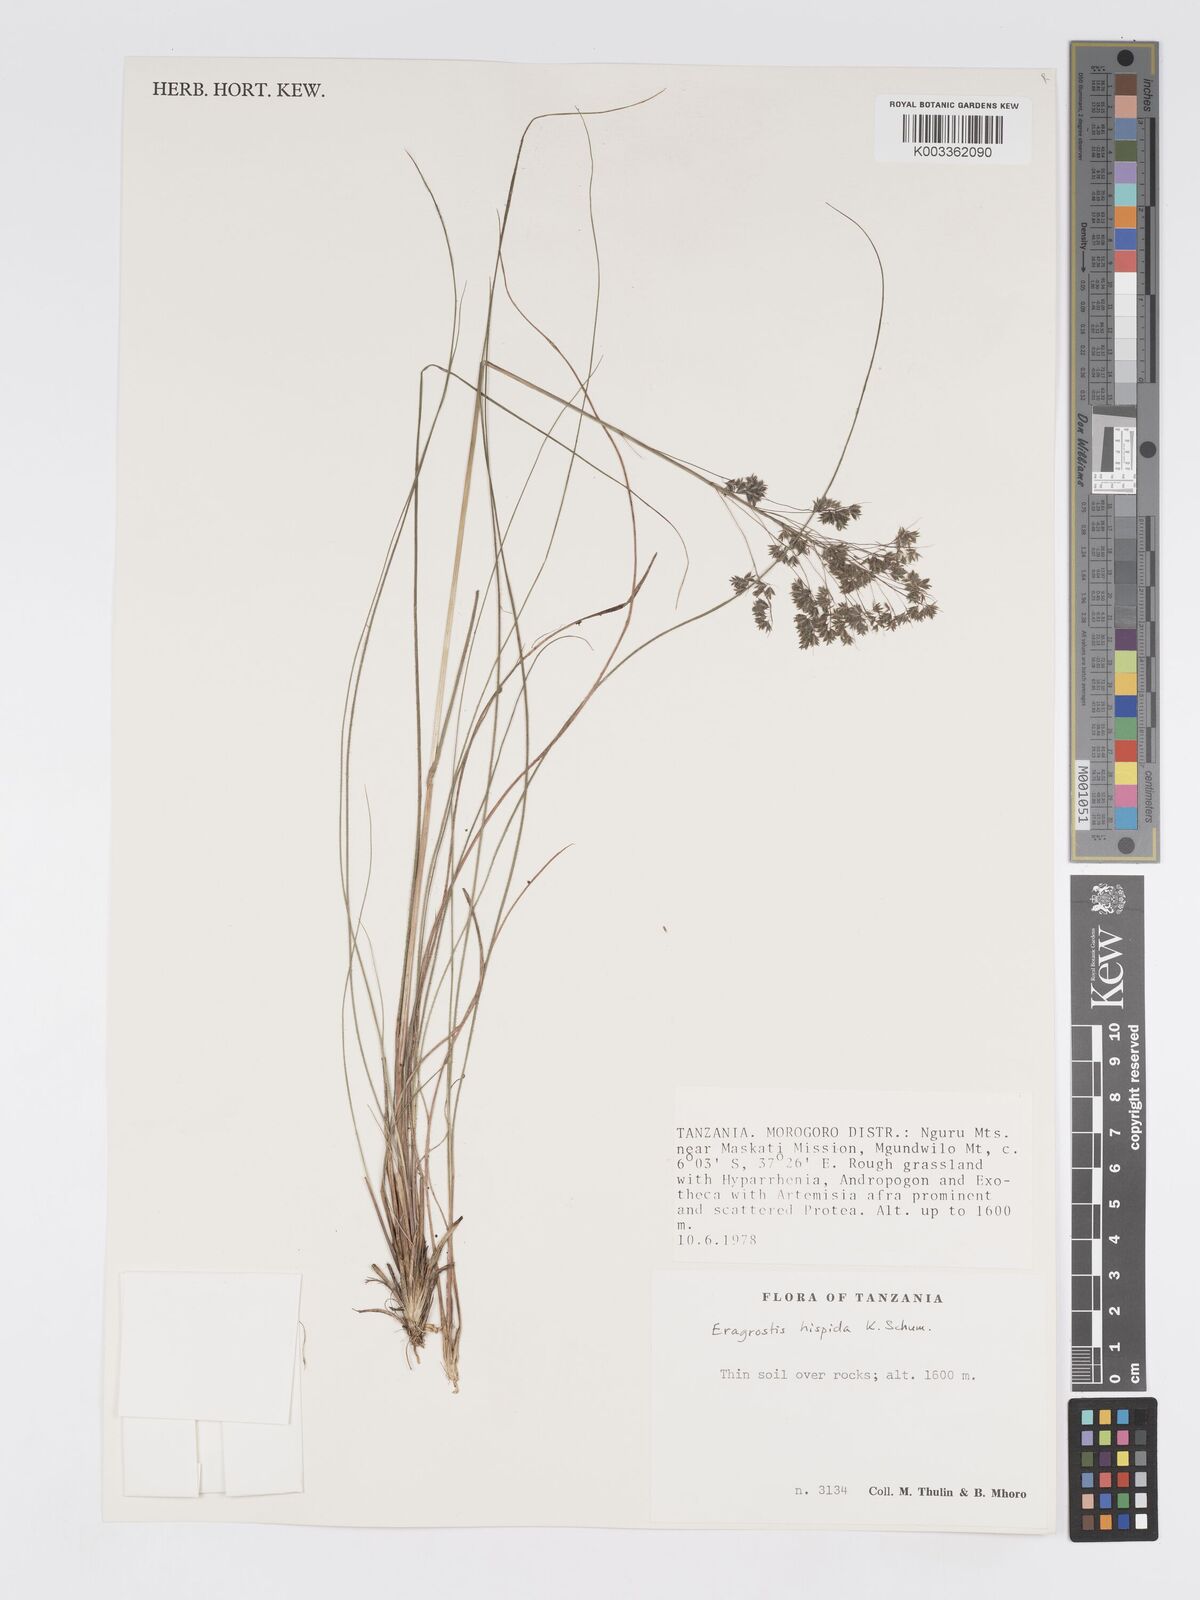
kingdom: Plantae
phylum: Tracheophyta
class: Liliopsida
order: Poales
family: Poaceae
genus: Eragrostis
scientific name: Eragrostis hispida
